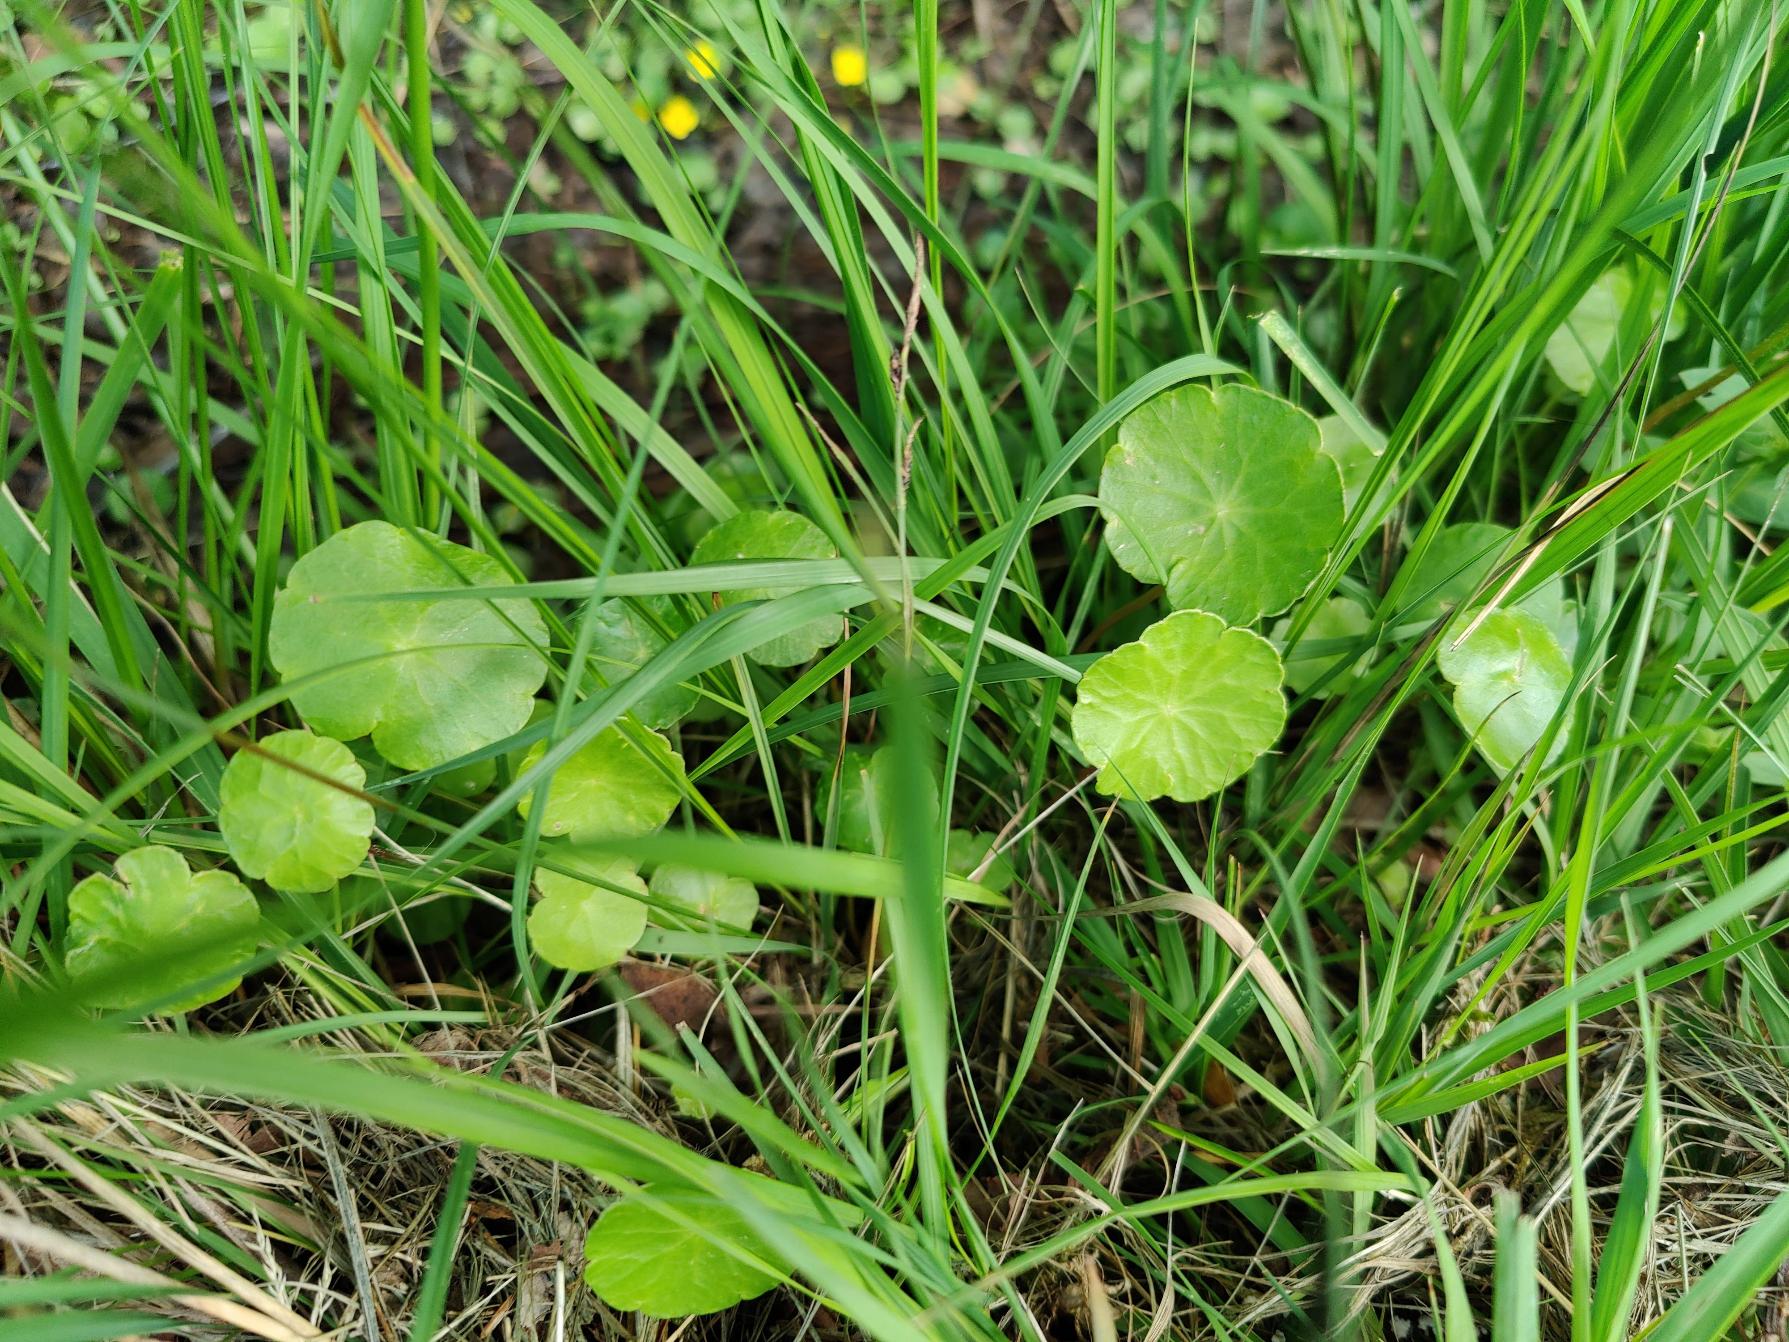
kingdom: Plantae
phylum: Tracheophyta
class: Magnoliopsida
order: Apiales
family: Araliaceae
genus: Hydrocotyle
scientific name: Hydrocotyle vulgaris
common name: Vandnavle
